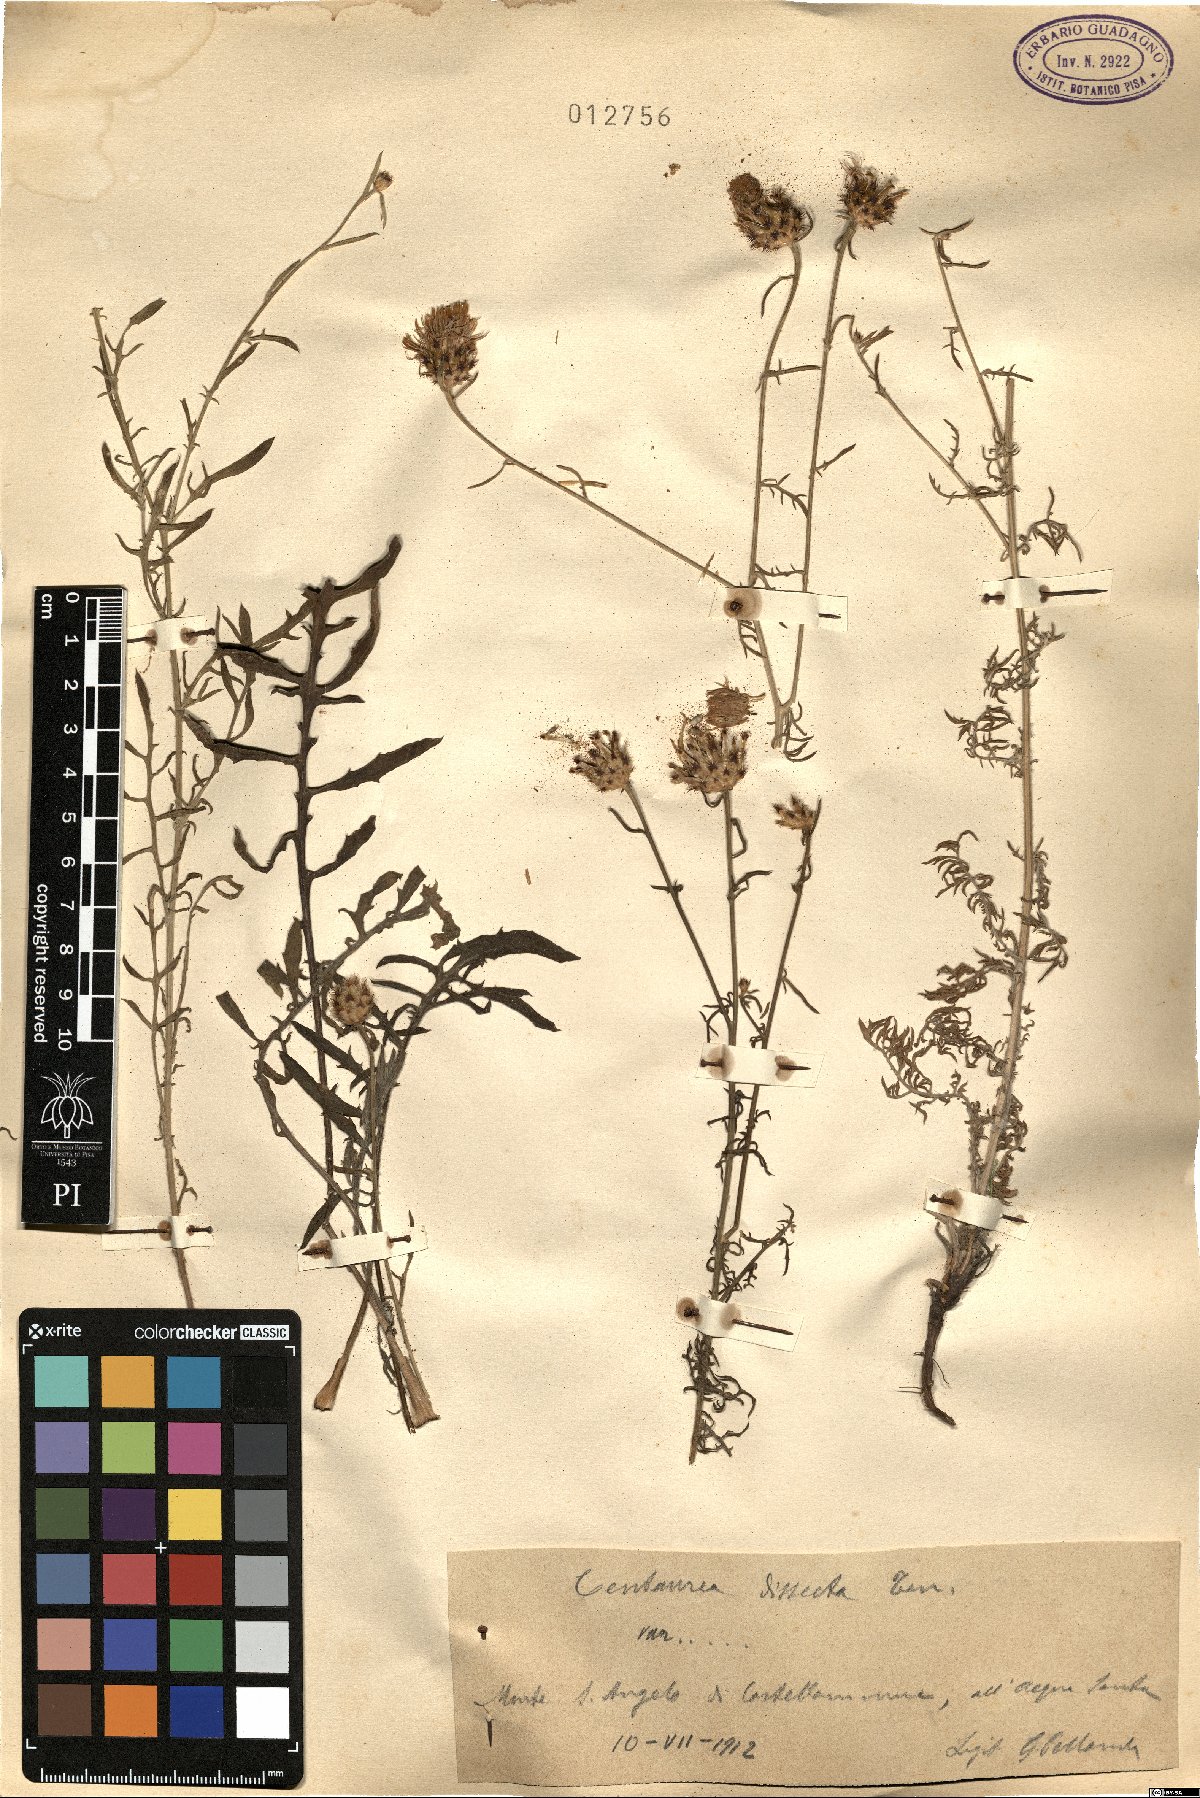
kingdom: Plantae
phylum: Tracheophyta
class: Magnoliopsida
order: Asterales
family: Asteraceae
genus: Centaurea
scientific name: Centaurea tenorei
